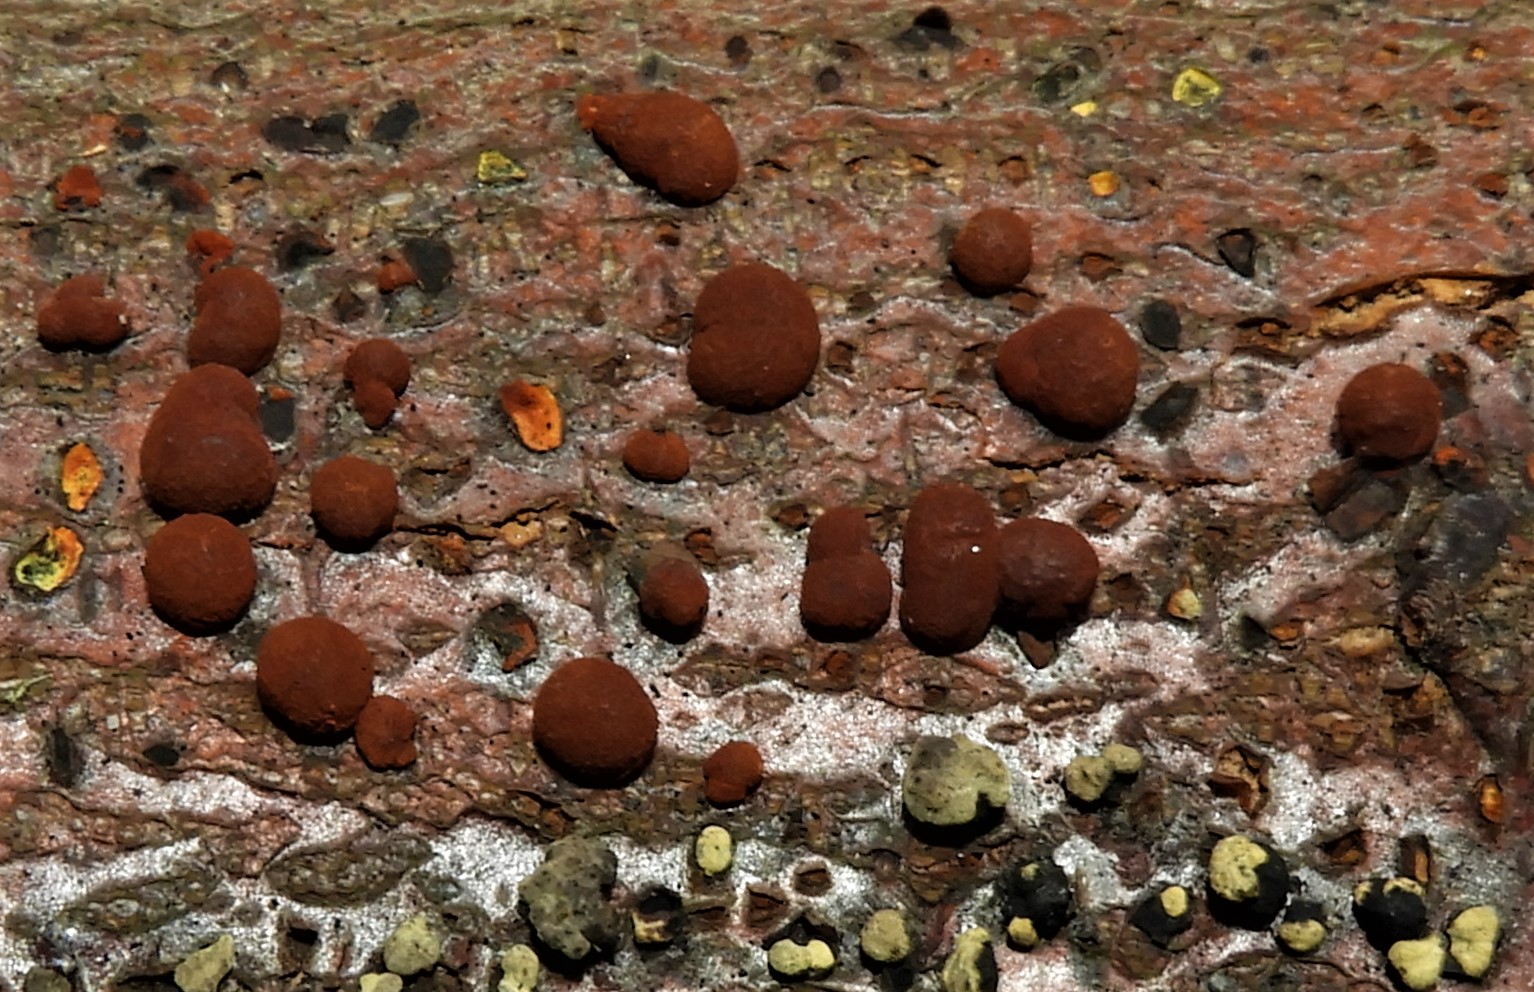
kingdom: Fungi
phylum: Ascomycota
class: Sordariomycetes
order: Xylariales
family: Hypoxylaceae
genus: Hypoxylon
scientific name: Hypoxylon fragiforme
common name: kuljordbær
